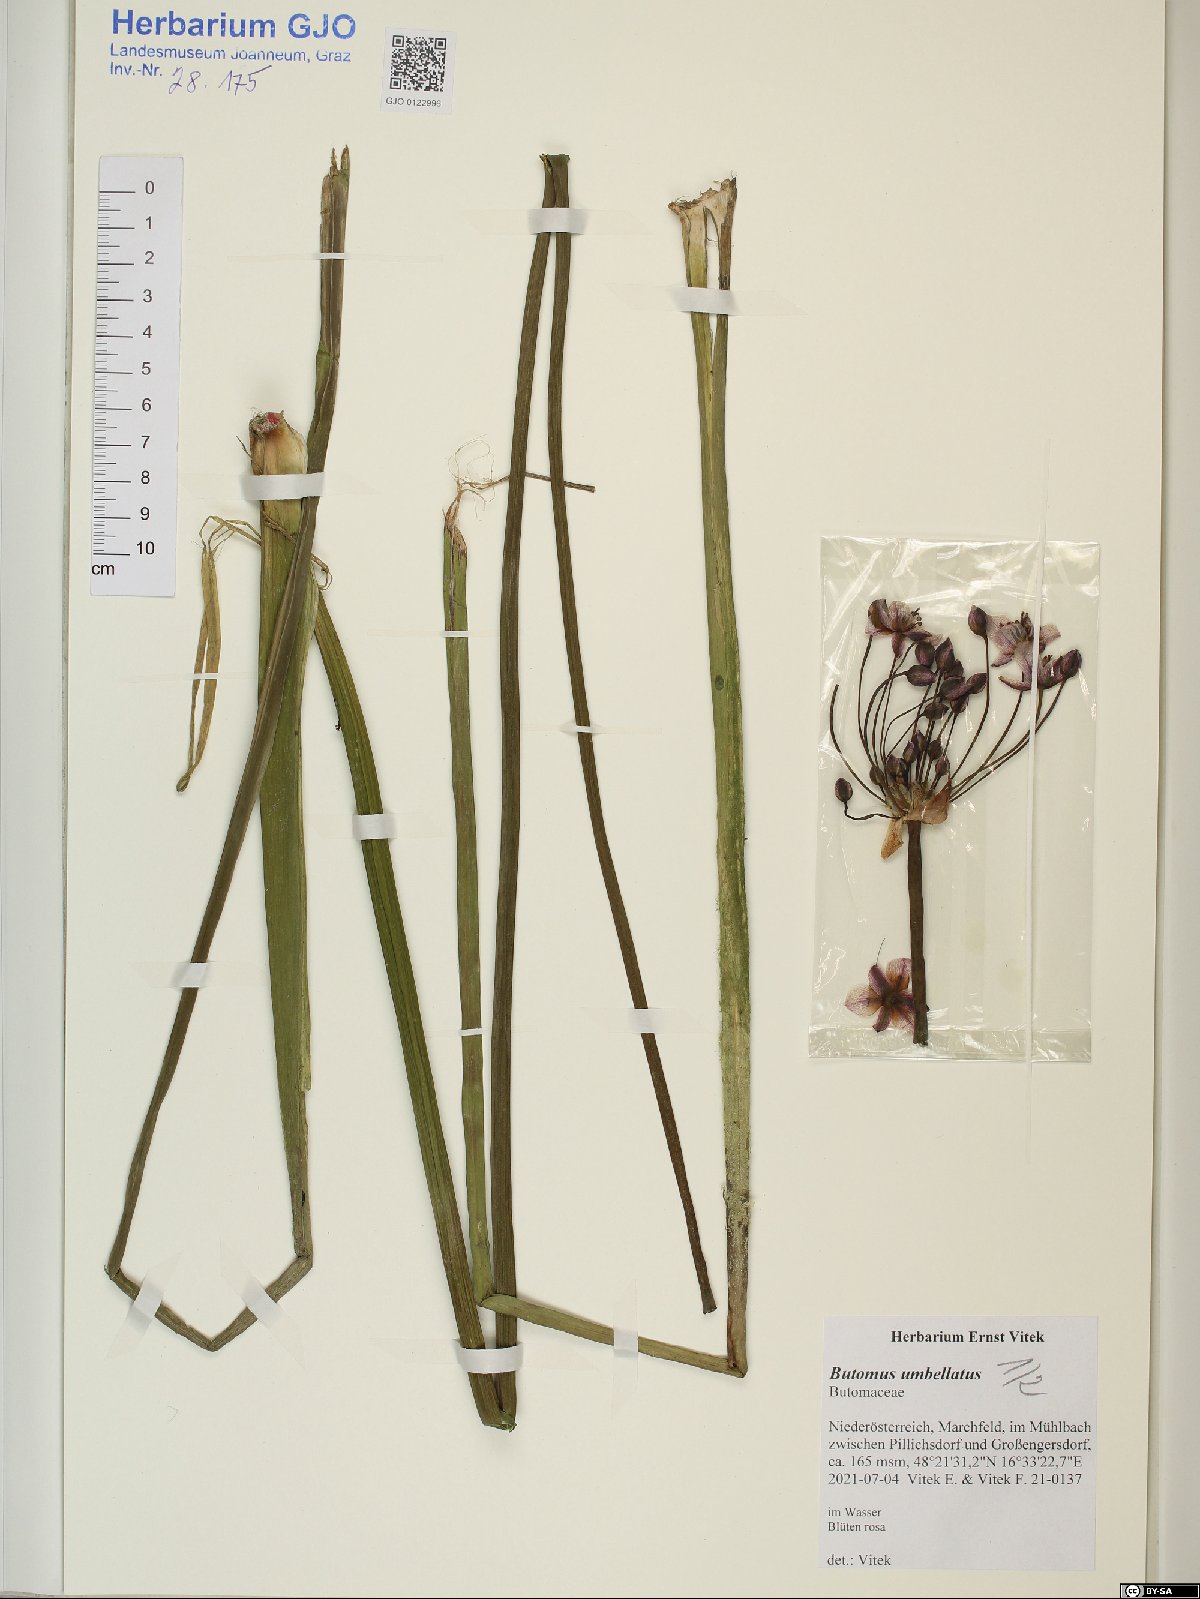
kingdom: Plantae
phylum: Tracheophyta
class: Liliopsida
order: Alismatales
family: Butomaceae
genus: Butomus
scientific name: Butomus umbellatus
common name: Flowering-rush
